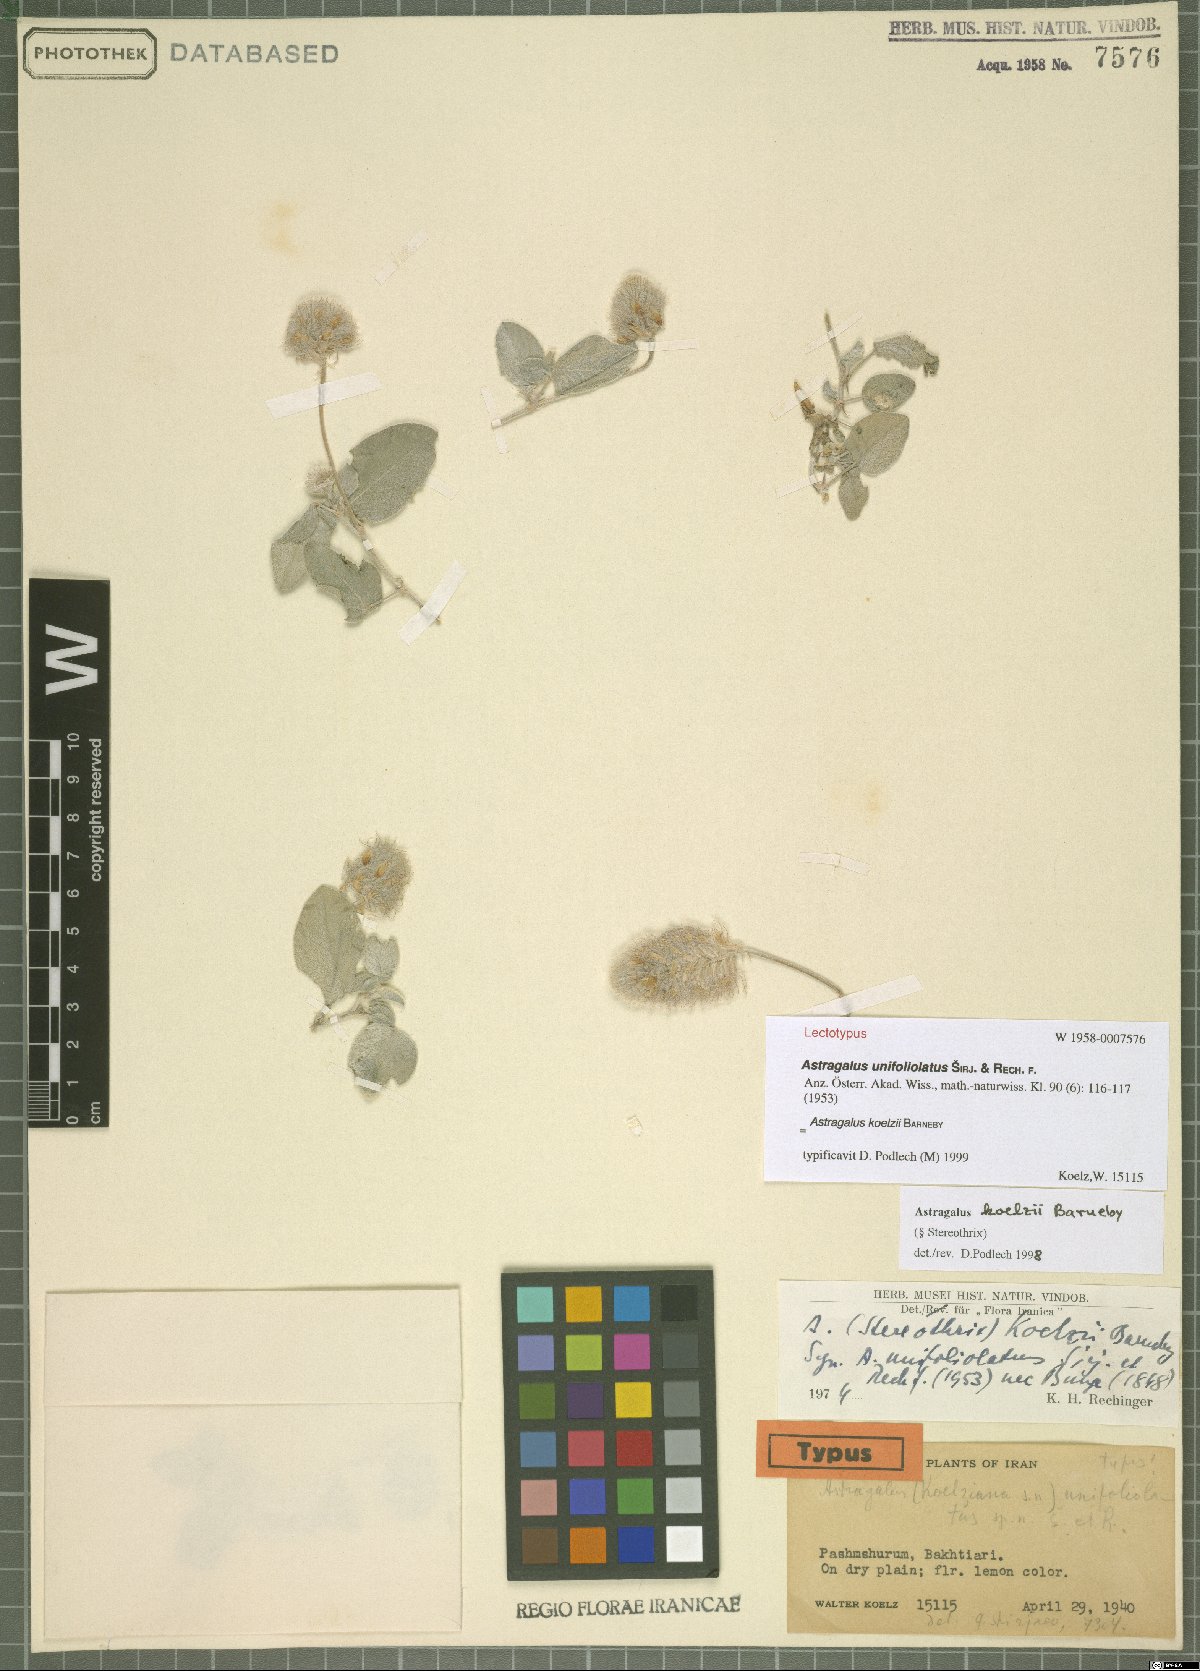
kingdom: Plantae
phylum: Tracheophyta
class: Magnoliopsida
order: Fabales
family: Fabaceae
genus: Astragalus
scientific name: Astragalus koelzii
